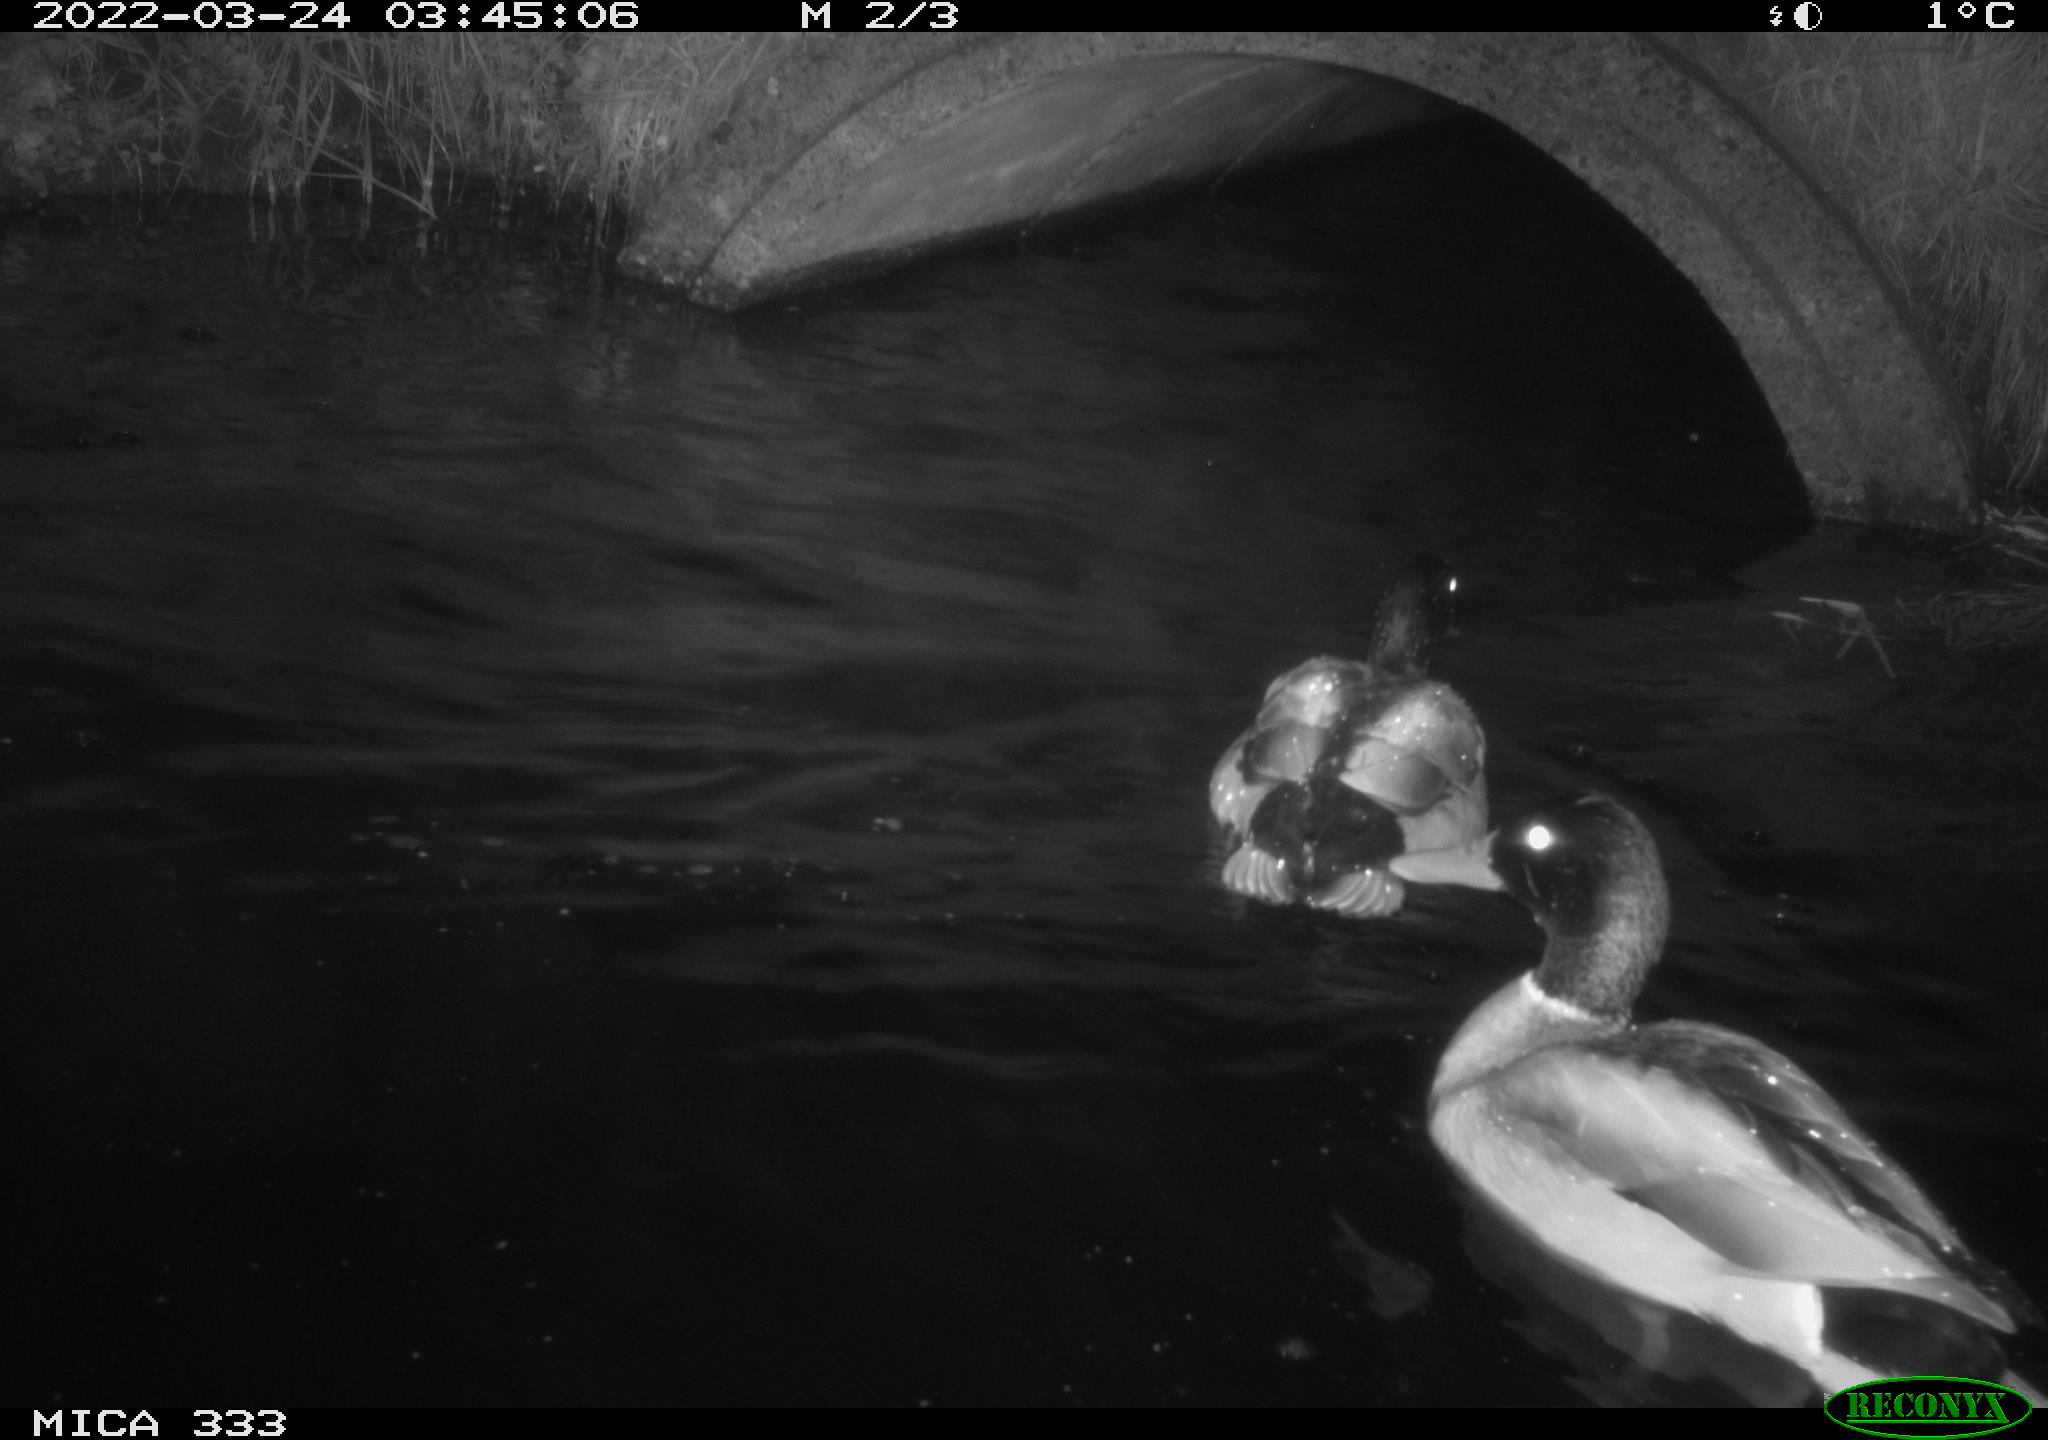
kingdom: Animalia
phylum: Chordata
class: Aves
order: Anseriformes
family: Anatidae
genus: Anas
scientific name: Anas platyrhynchos
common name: Mallard
